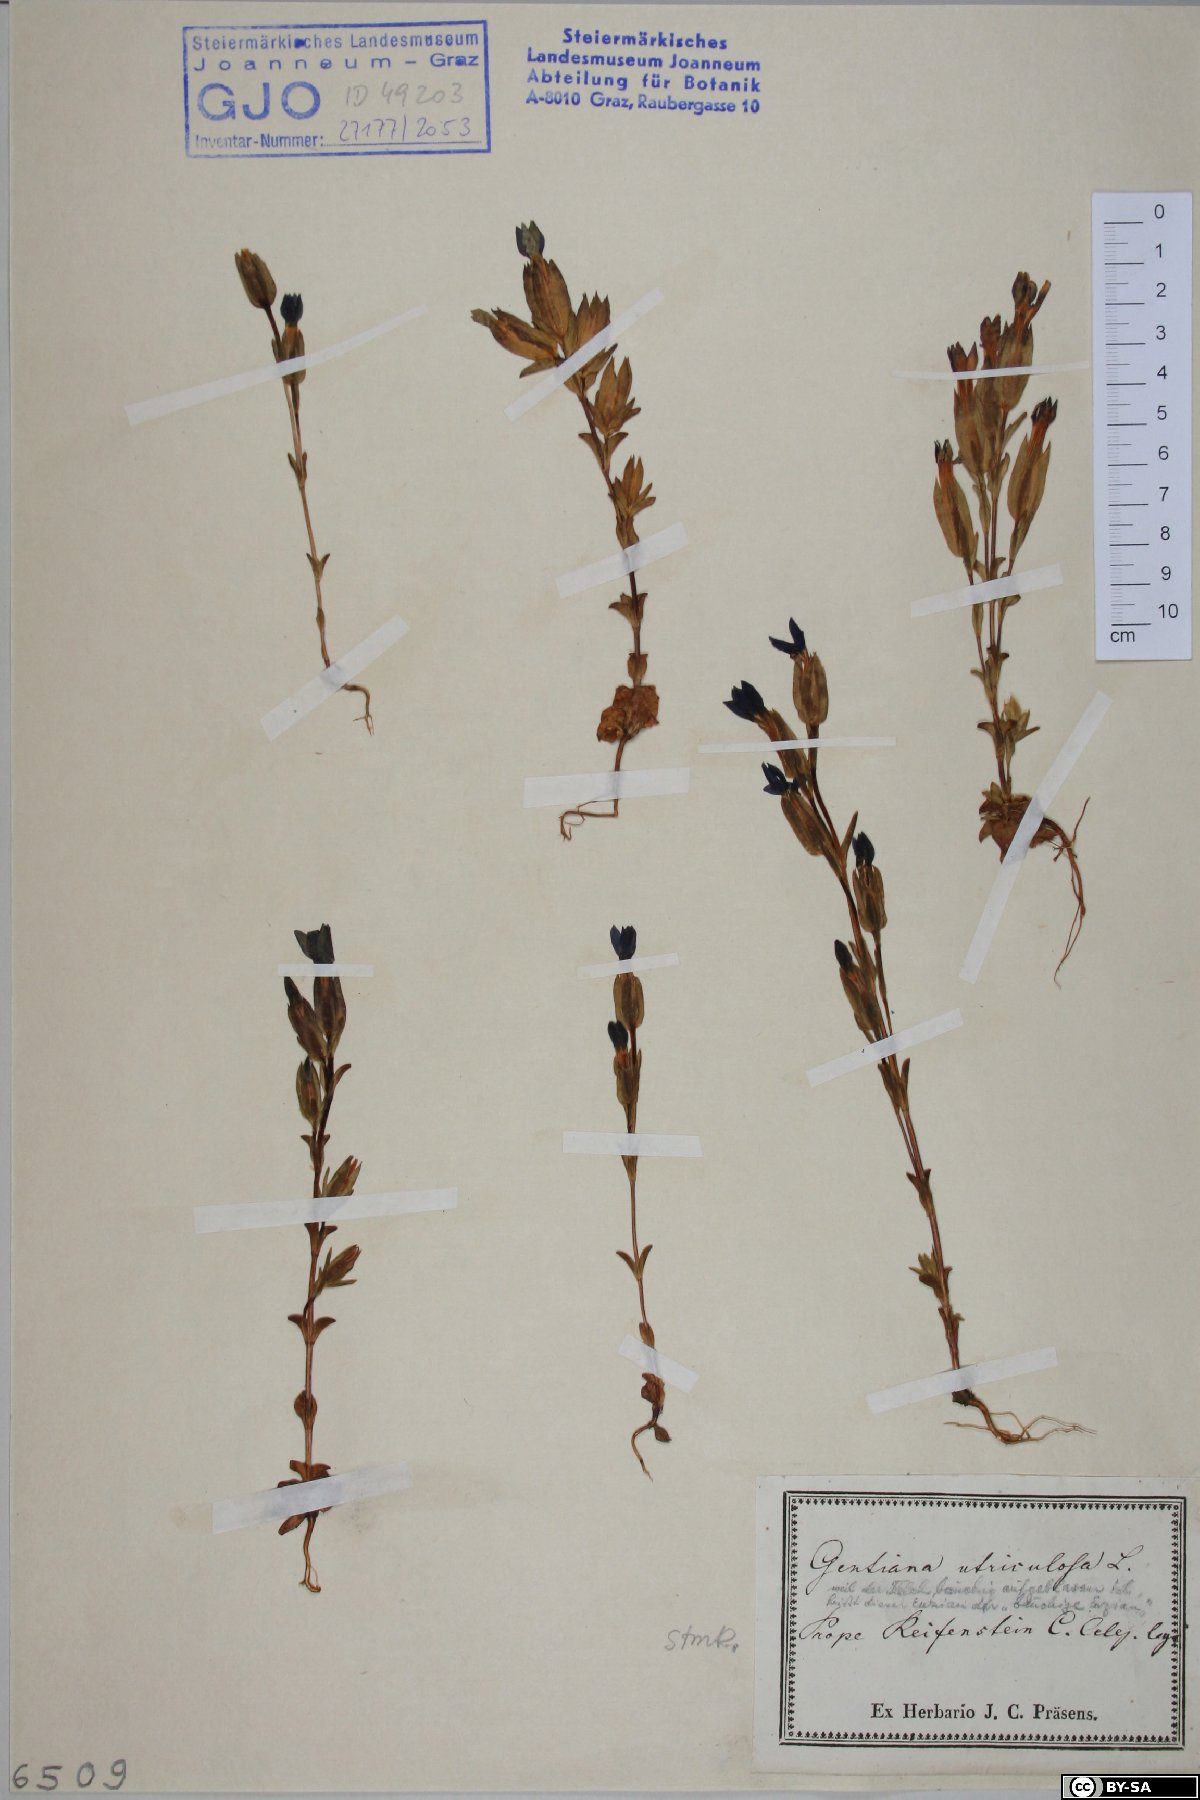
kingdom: Plantae
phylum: Tracheophyta
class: Magnoliopsida
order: Gentianales
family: Gentianaceae
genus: Gentiana
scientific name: Gentiana utriculosa
